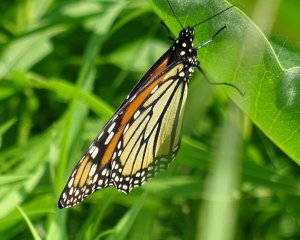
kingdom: Animalia
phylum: Arthropoda
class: Insecta
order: Lepidoptera
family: Nymphalidae
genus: Danaus
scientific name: Danaus plexippus
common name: Monarch
